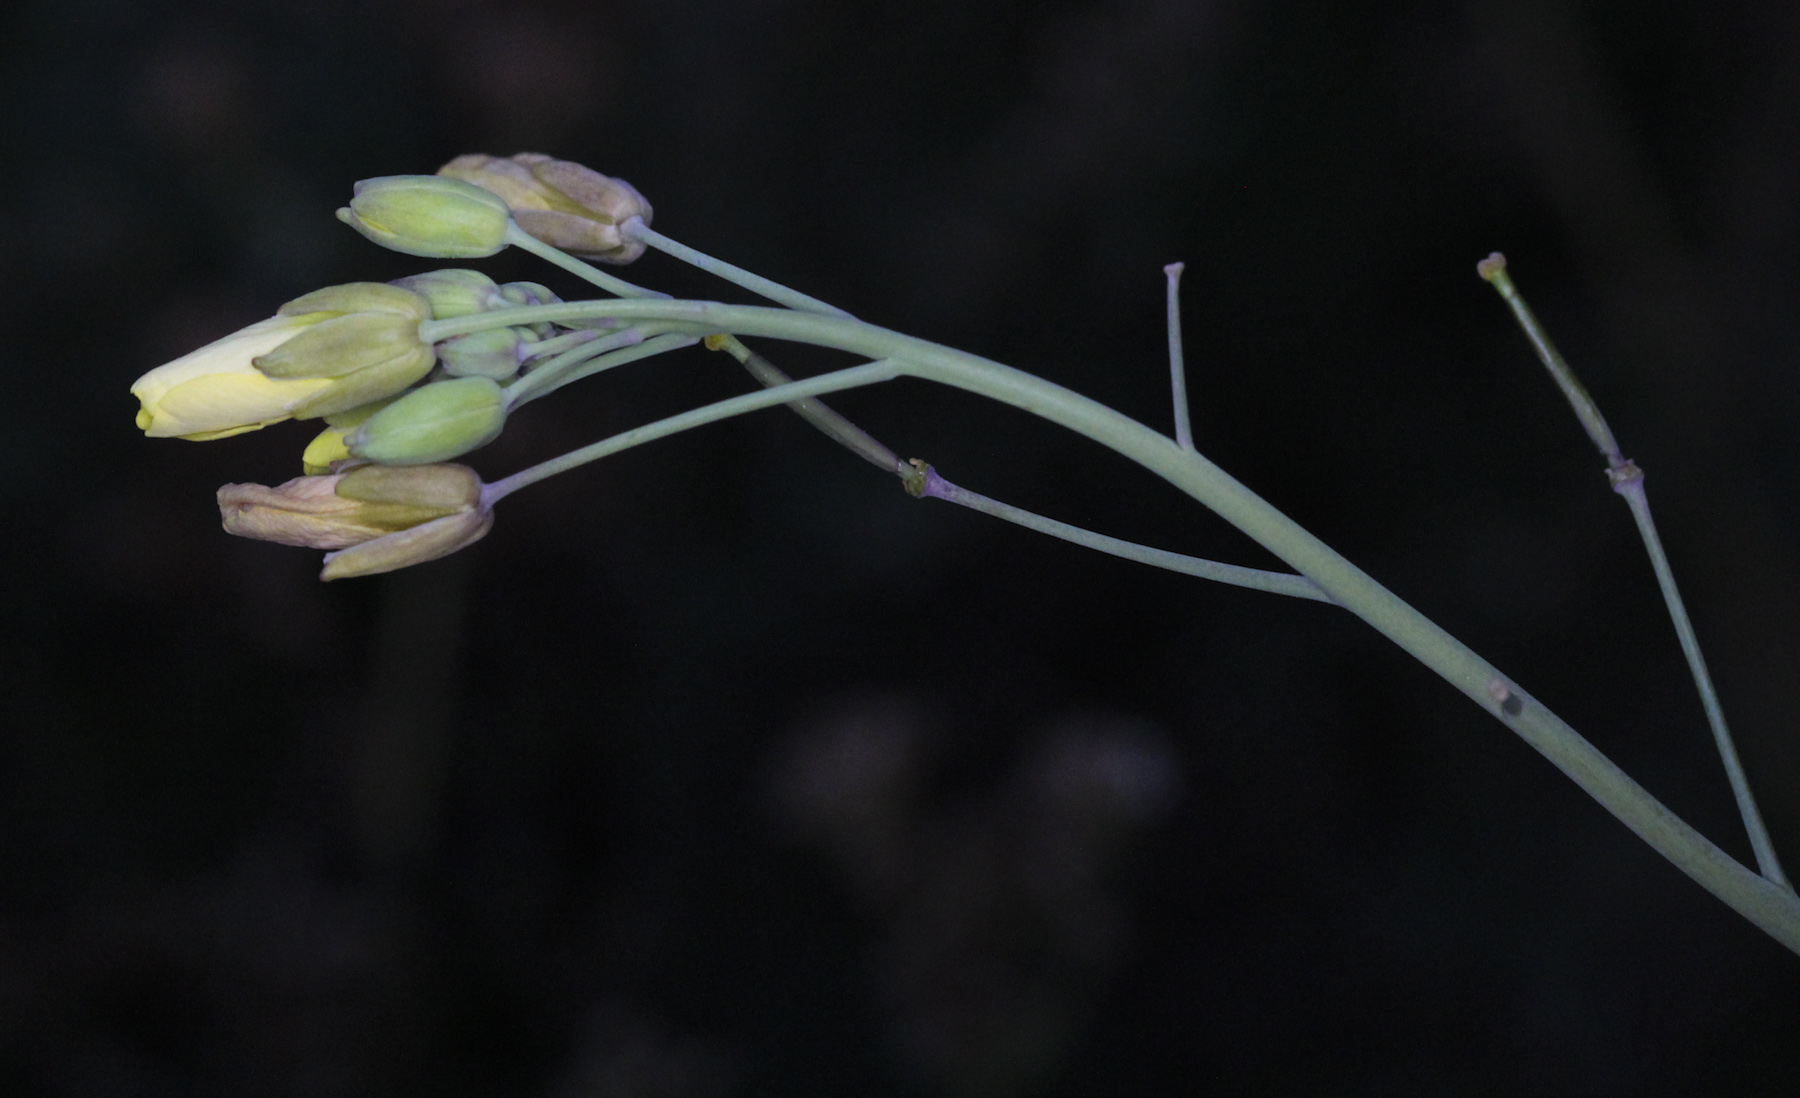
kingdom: Plantae
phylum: Tracheophyta
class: Magnoliopsida
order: Brassicales
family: Brassicaceae
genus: Diplotaxis
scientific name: Diplotaxis tenuifolia
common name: Perennial wall-rocket
